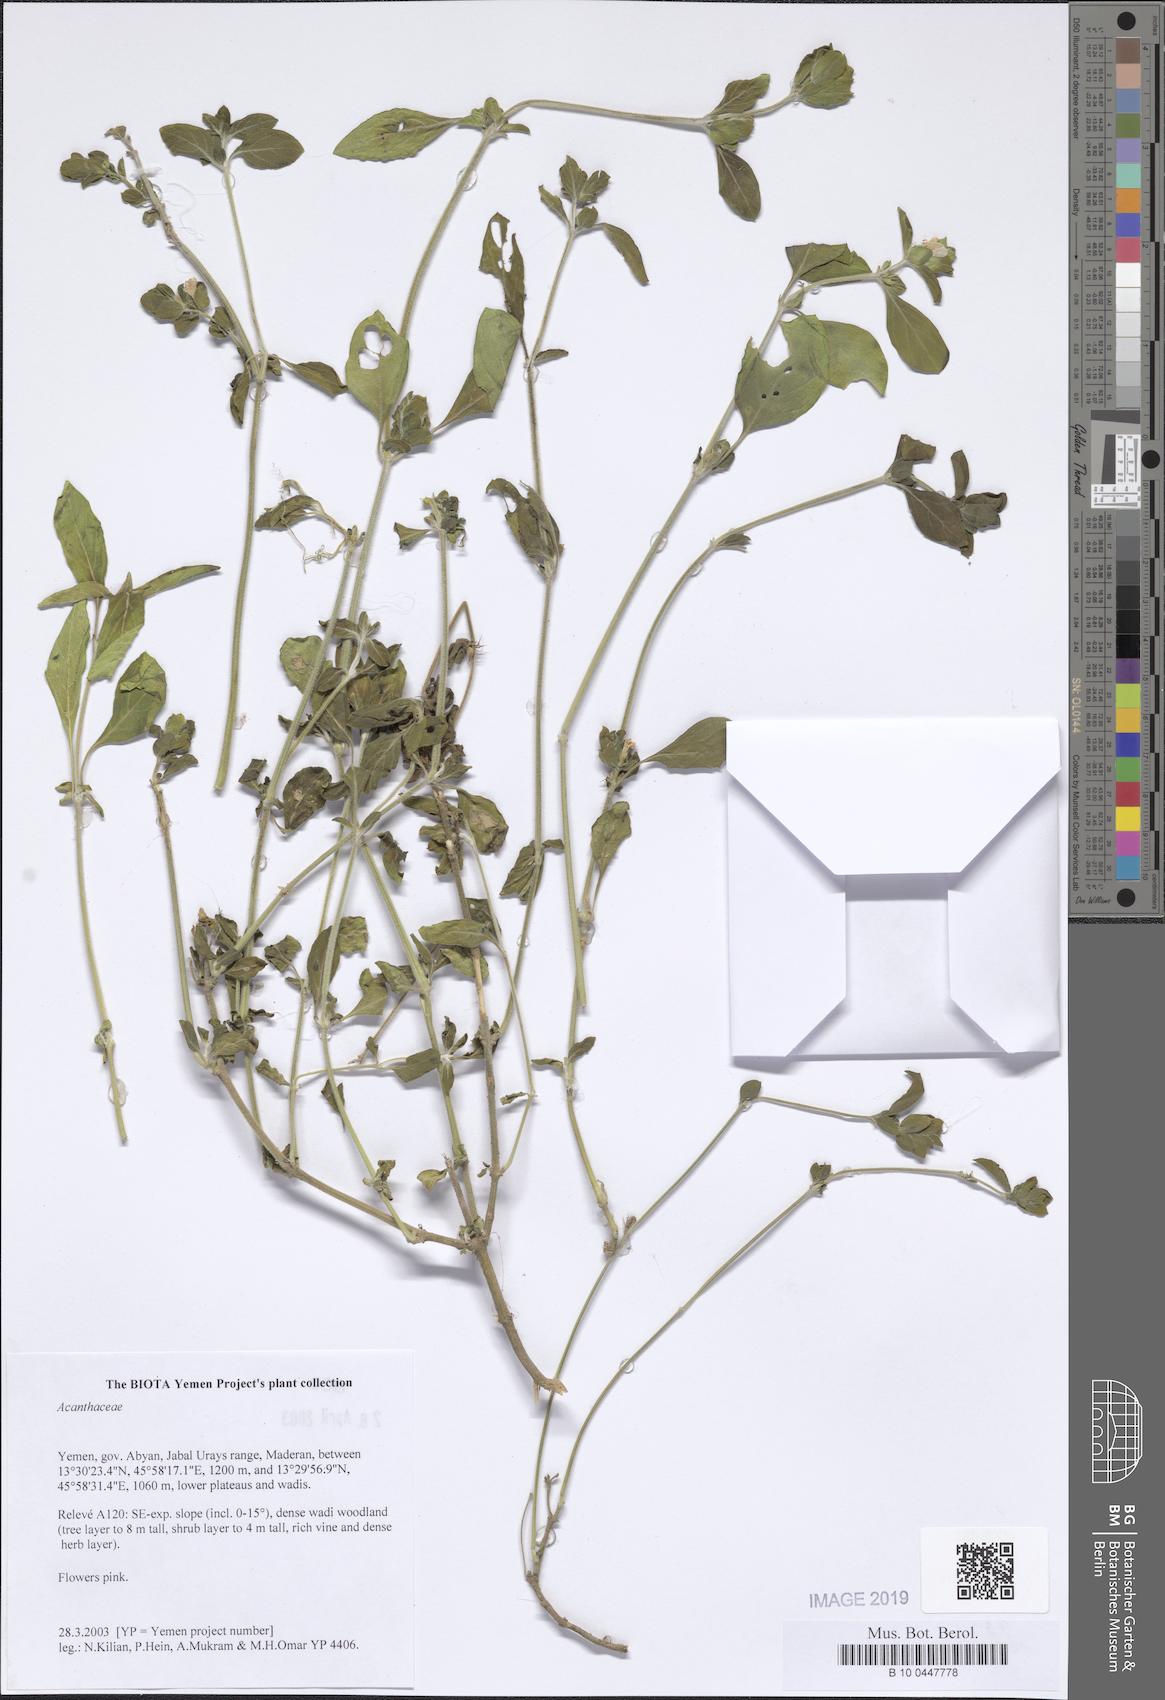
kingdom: Plantae
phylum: Tracheophyta
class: Magnoliopsida
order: Lamiales
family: Acanthaceae
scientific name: Acanthaceae
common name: Acanthaceae
